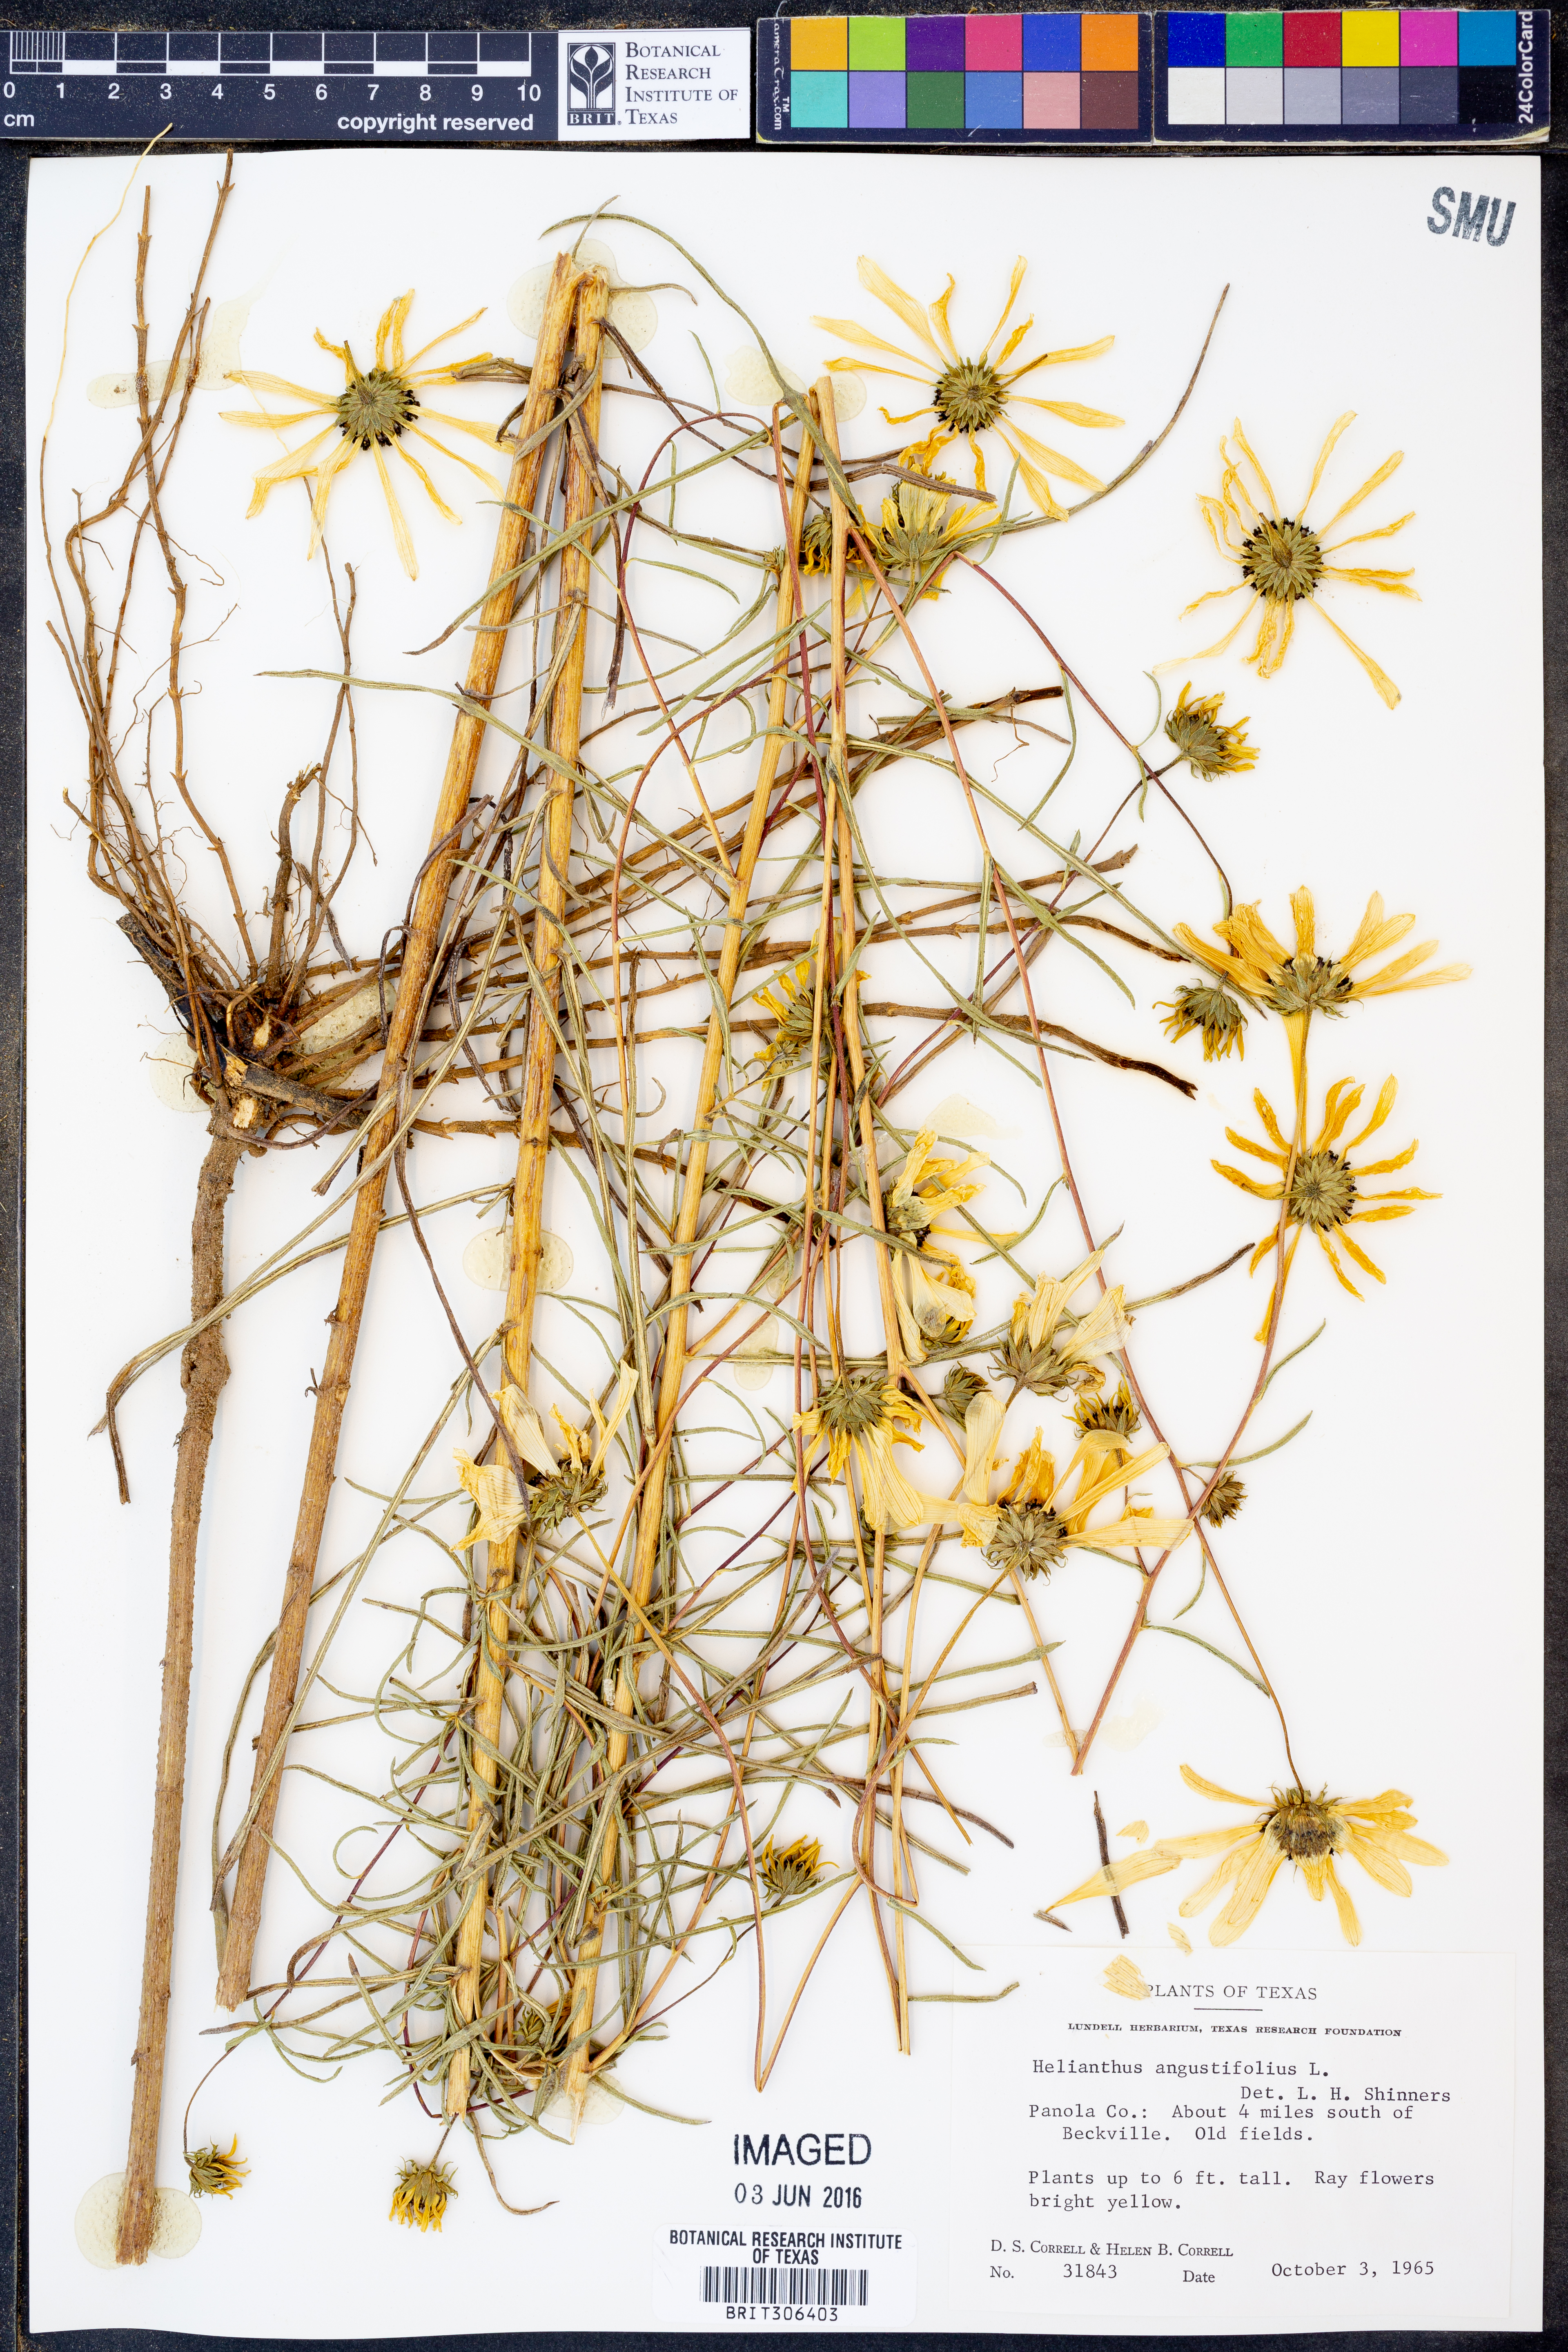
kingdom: Plantae
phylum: Tracheophyta
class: Magnoliopsida
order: Asterales
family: Asteraceae
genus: Helianthus
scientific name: Helianthus angustifolius
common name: Swamp sunflower
